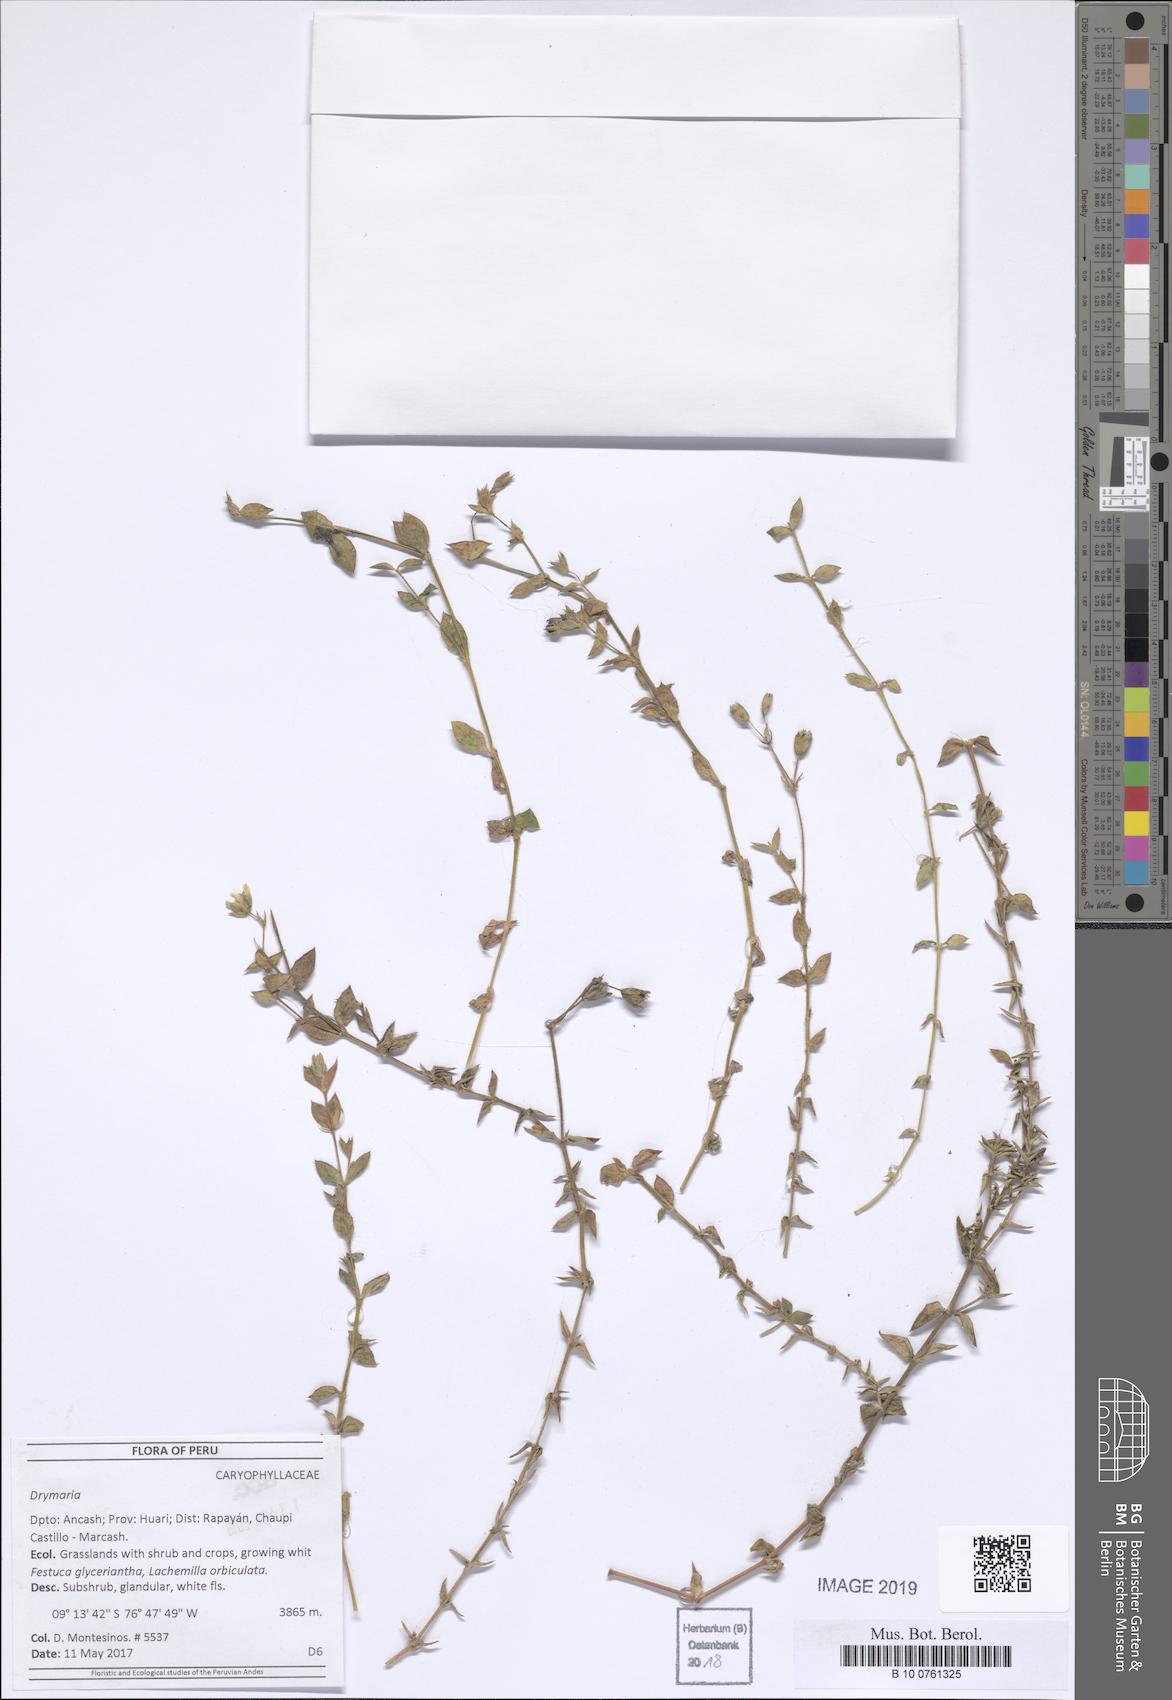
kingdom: Plantae
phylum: Tracheophyta
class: Magnoliopsida
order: Caryophyllales
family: Caryophyllaceae
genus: Drymaria
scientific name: Drymaria
